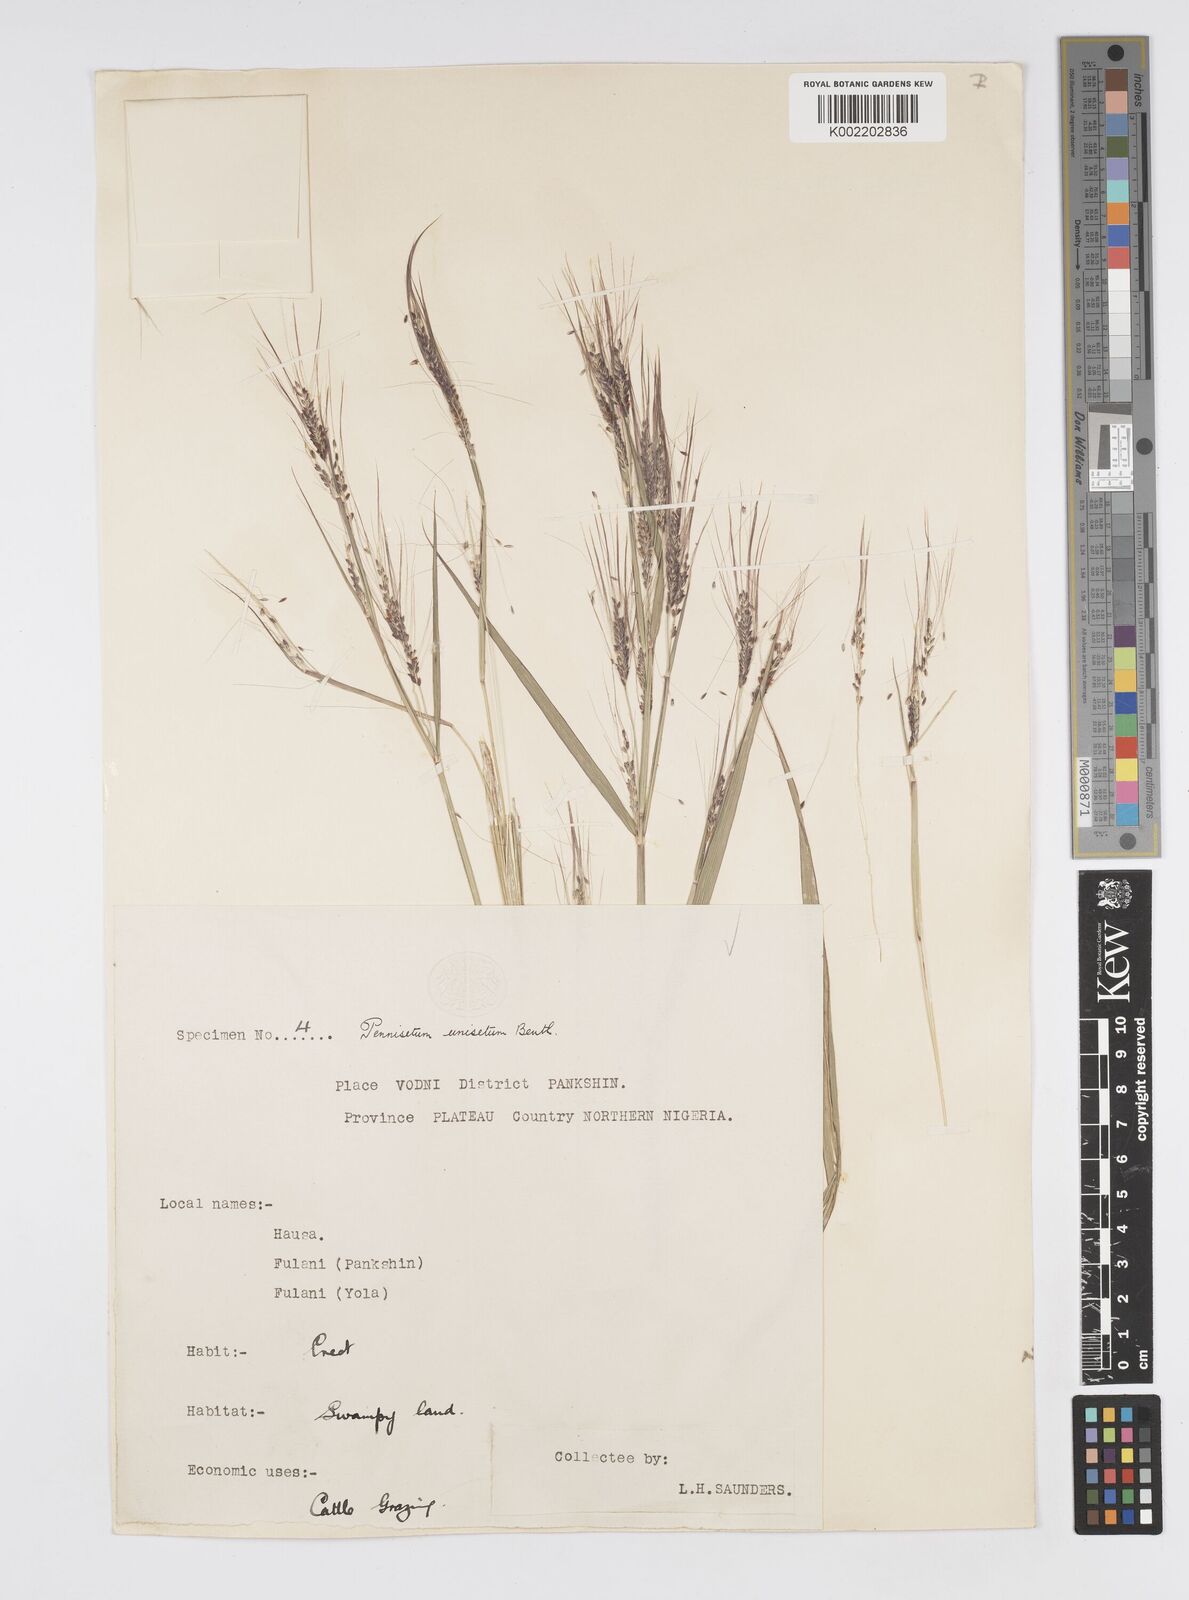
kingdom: Plantae
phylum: Tracheophyta
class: Liliopsida
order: Poales
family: Poaceae
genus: Cenchrus
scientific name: Cenchrus unisetus
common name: Natal grass
